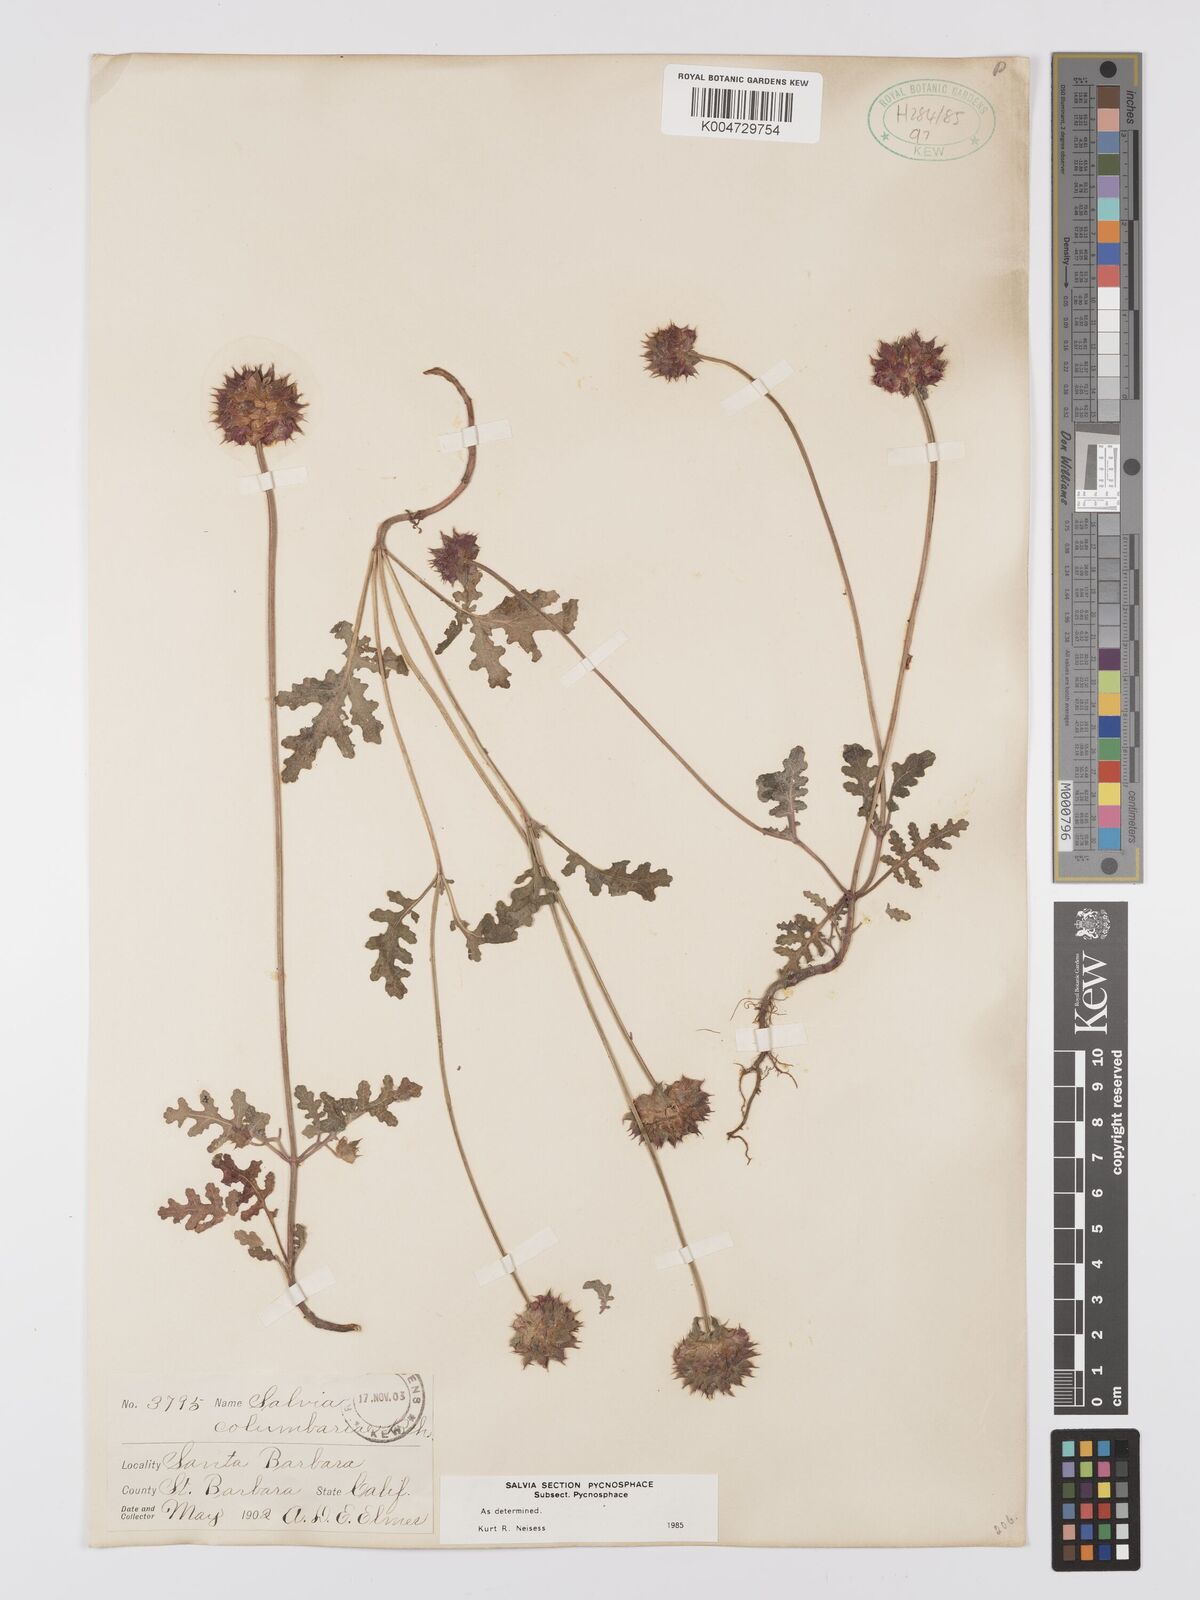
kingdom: Plantae
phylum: Tracheophyta
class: Magnoliopsida
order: Lamiales
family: Lamiaceae
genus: Salvia
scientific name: Salvia columbariae
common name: Chia
